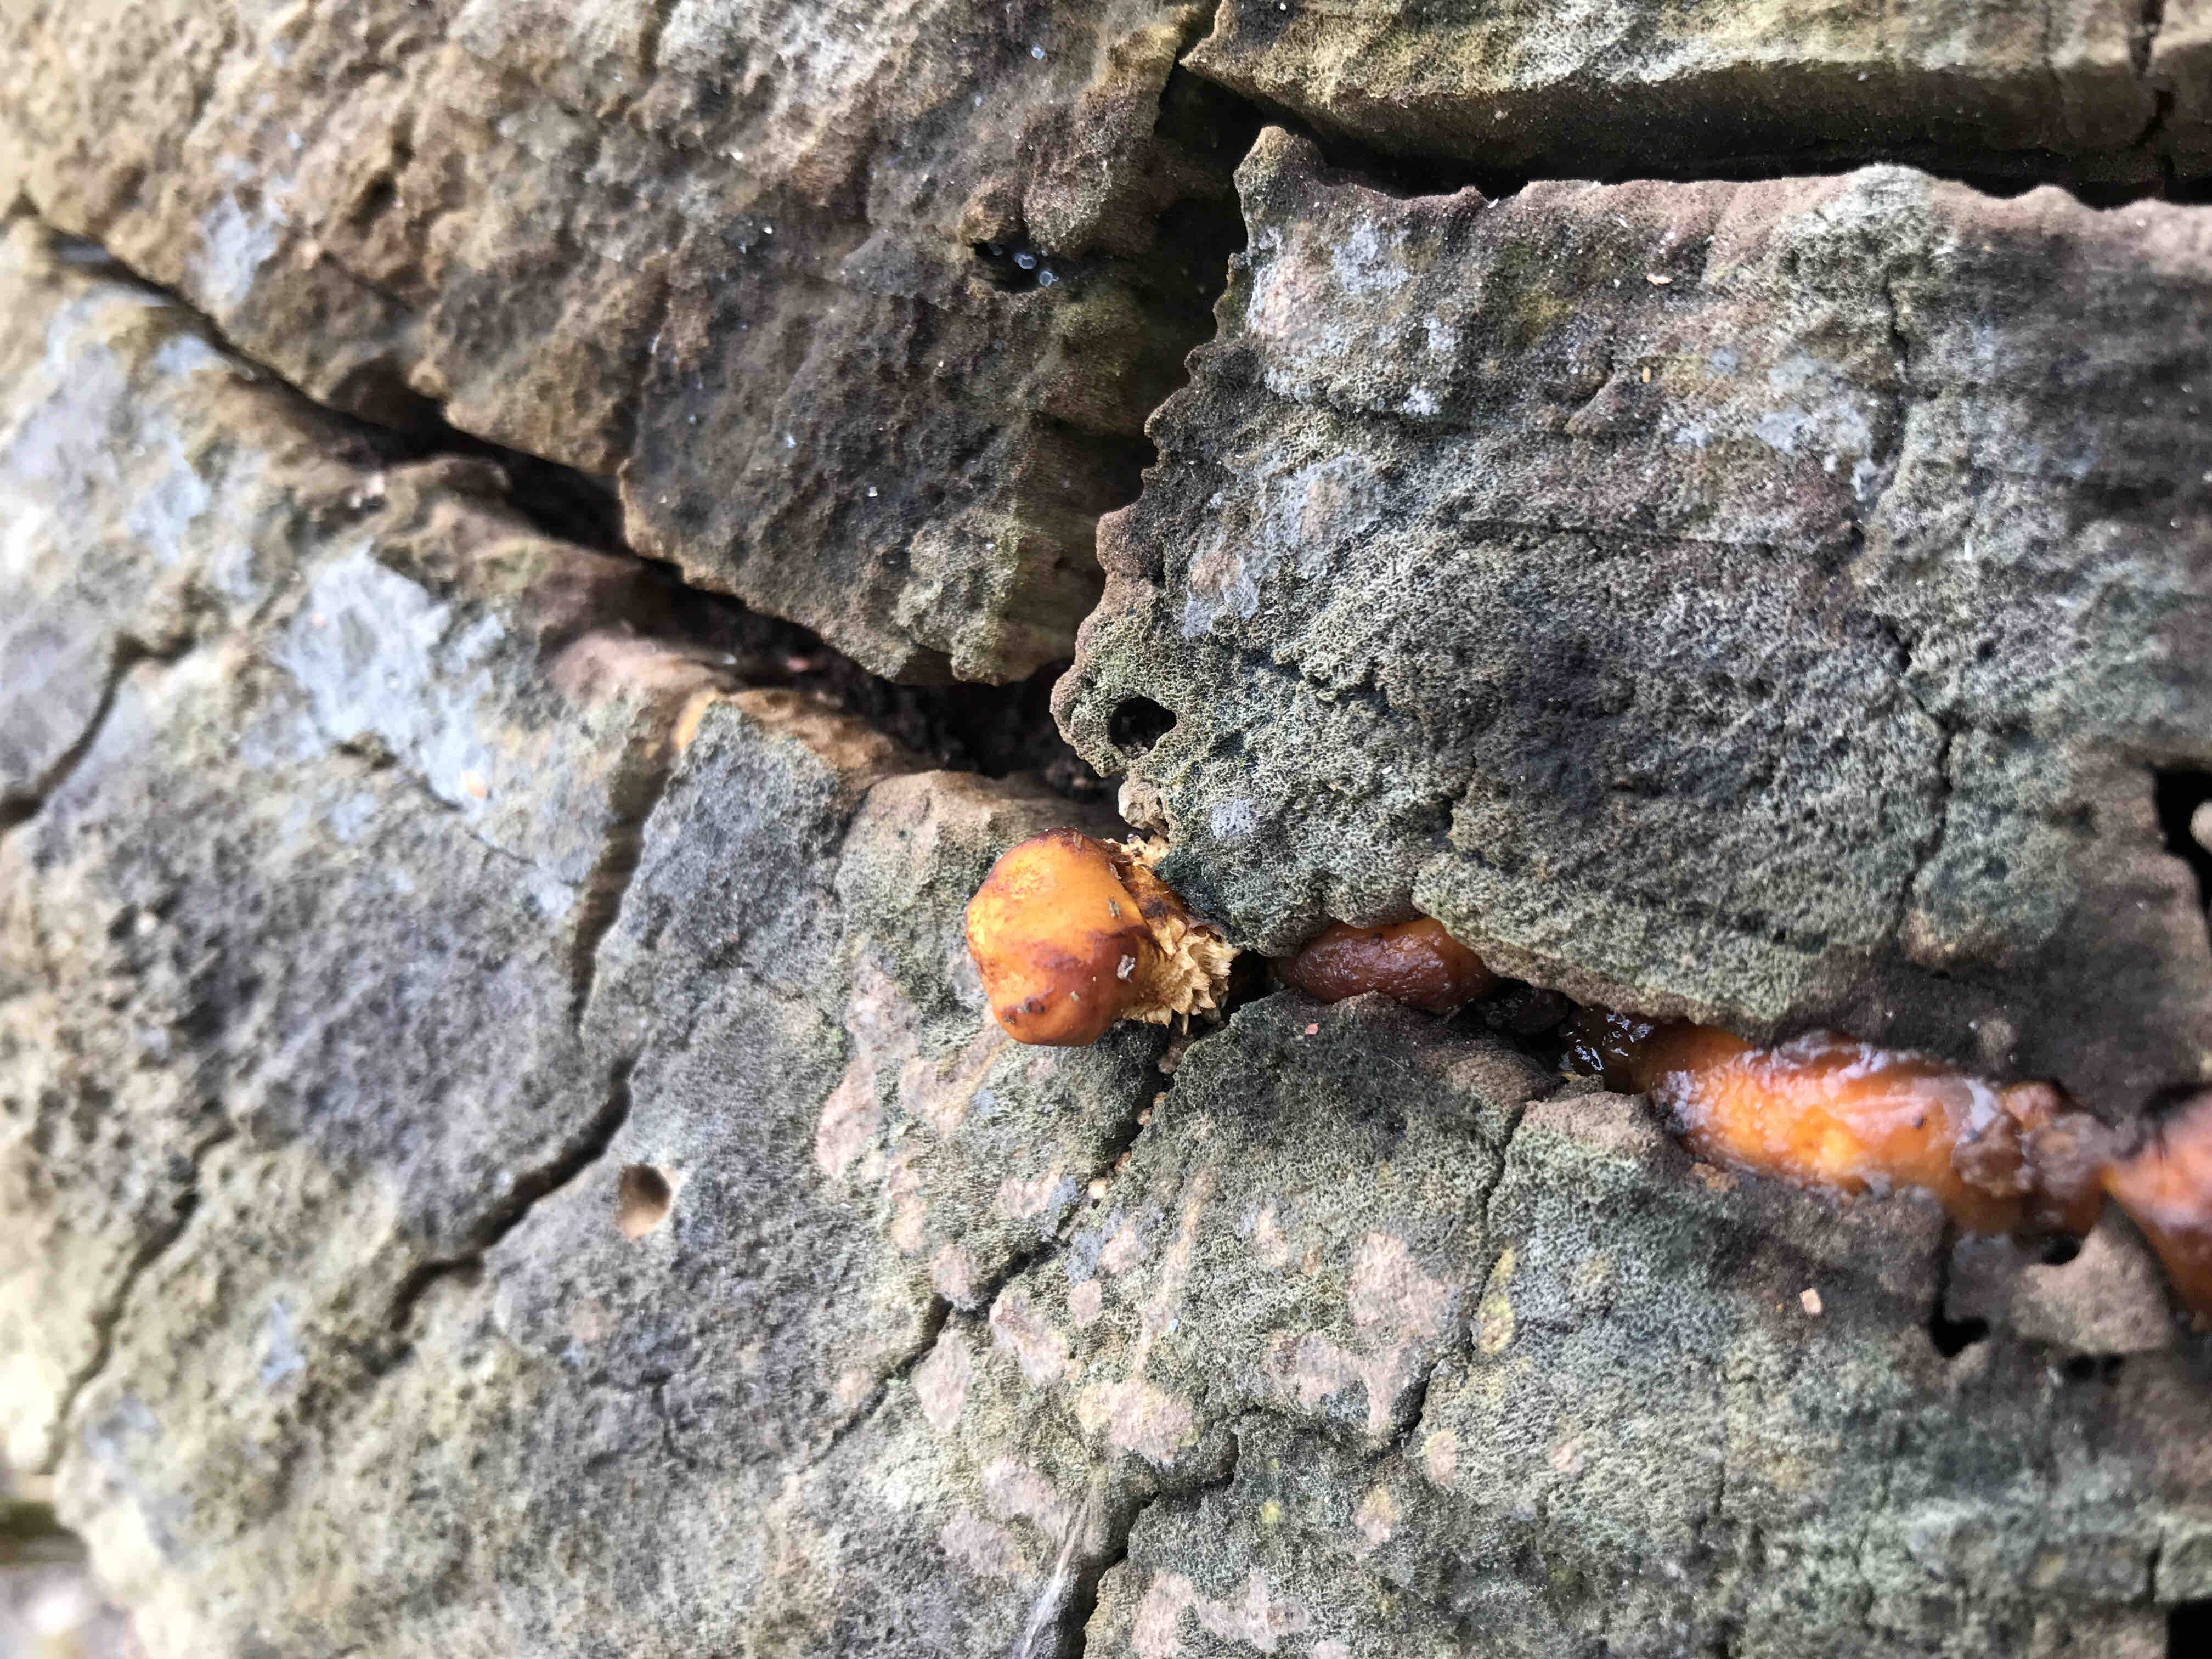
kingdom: Fungi
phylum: Basidiomycota
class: Agaricomycetes
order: Agaricales
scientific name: Agaricales
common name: champignonordenen
